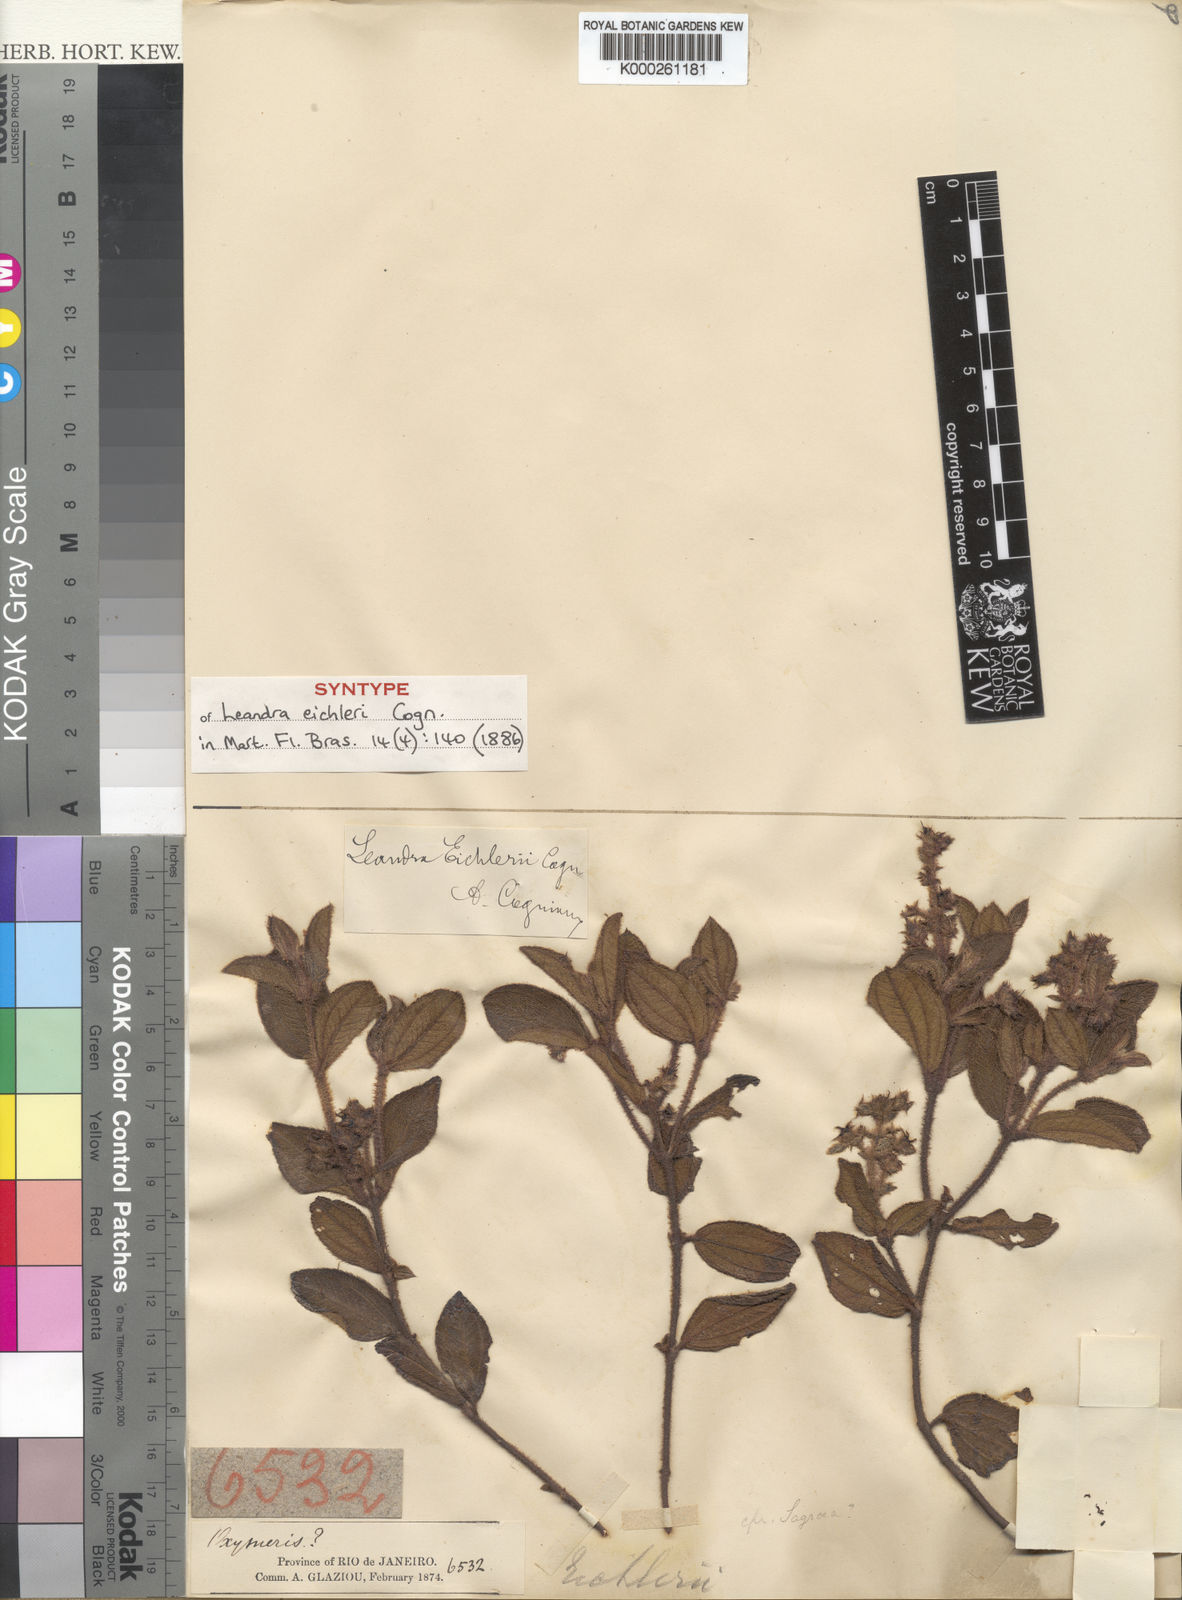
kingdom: Plantae
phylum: Tracheophyta
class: Magnoliopsida
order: Myrtales
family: Melastomataceae
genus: Miconia
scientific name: Miconia leaeichleri
